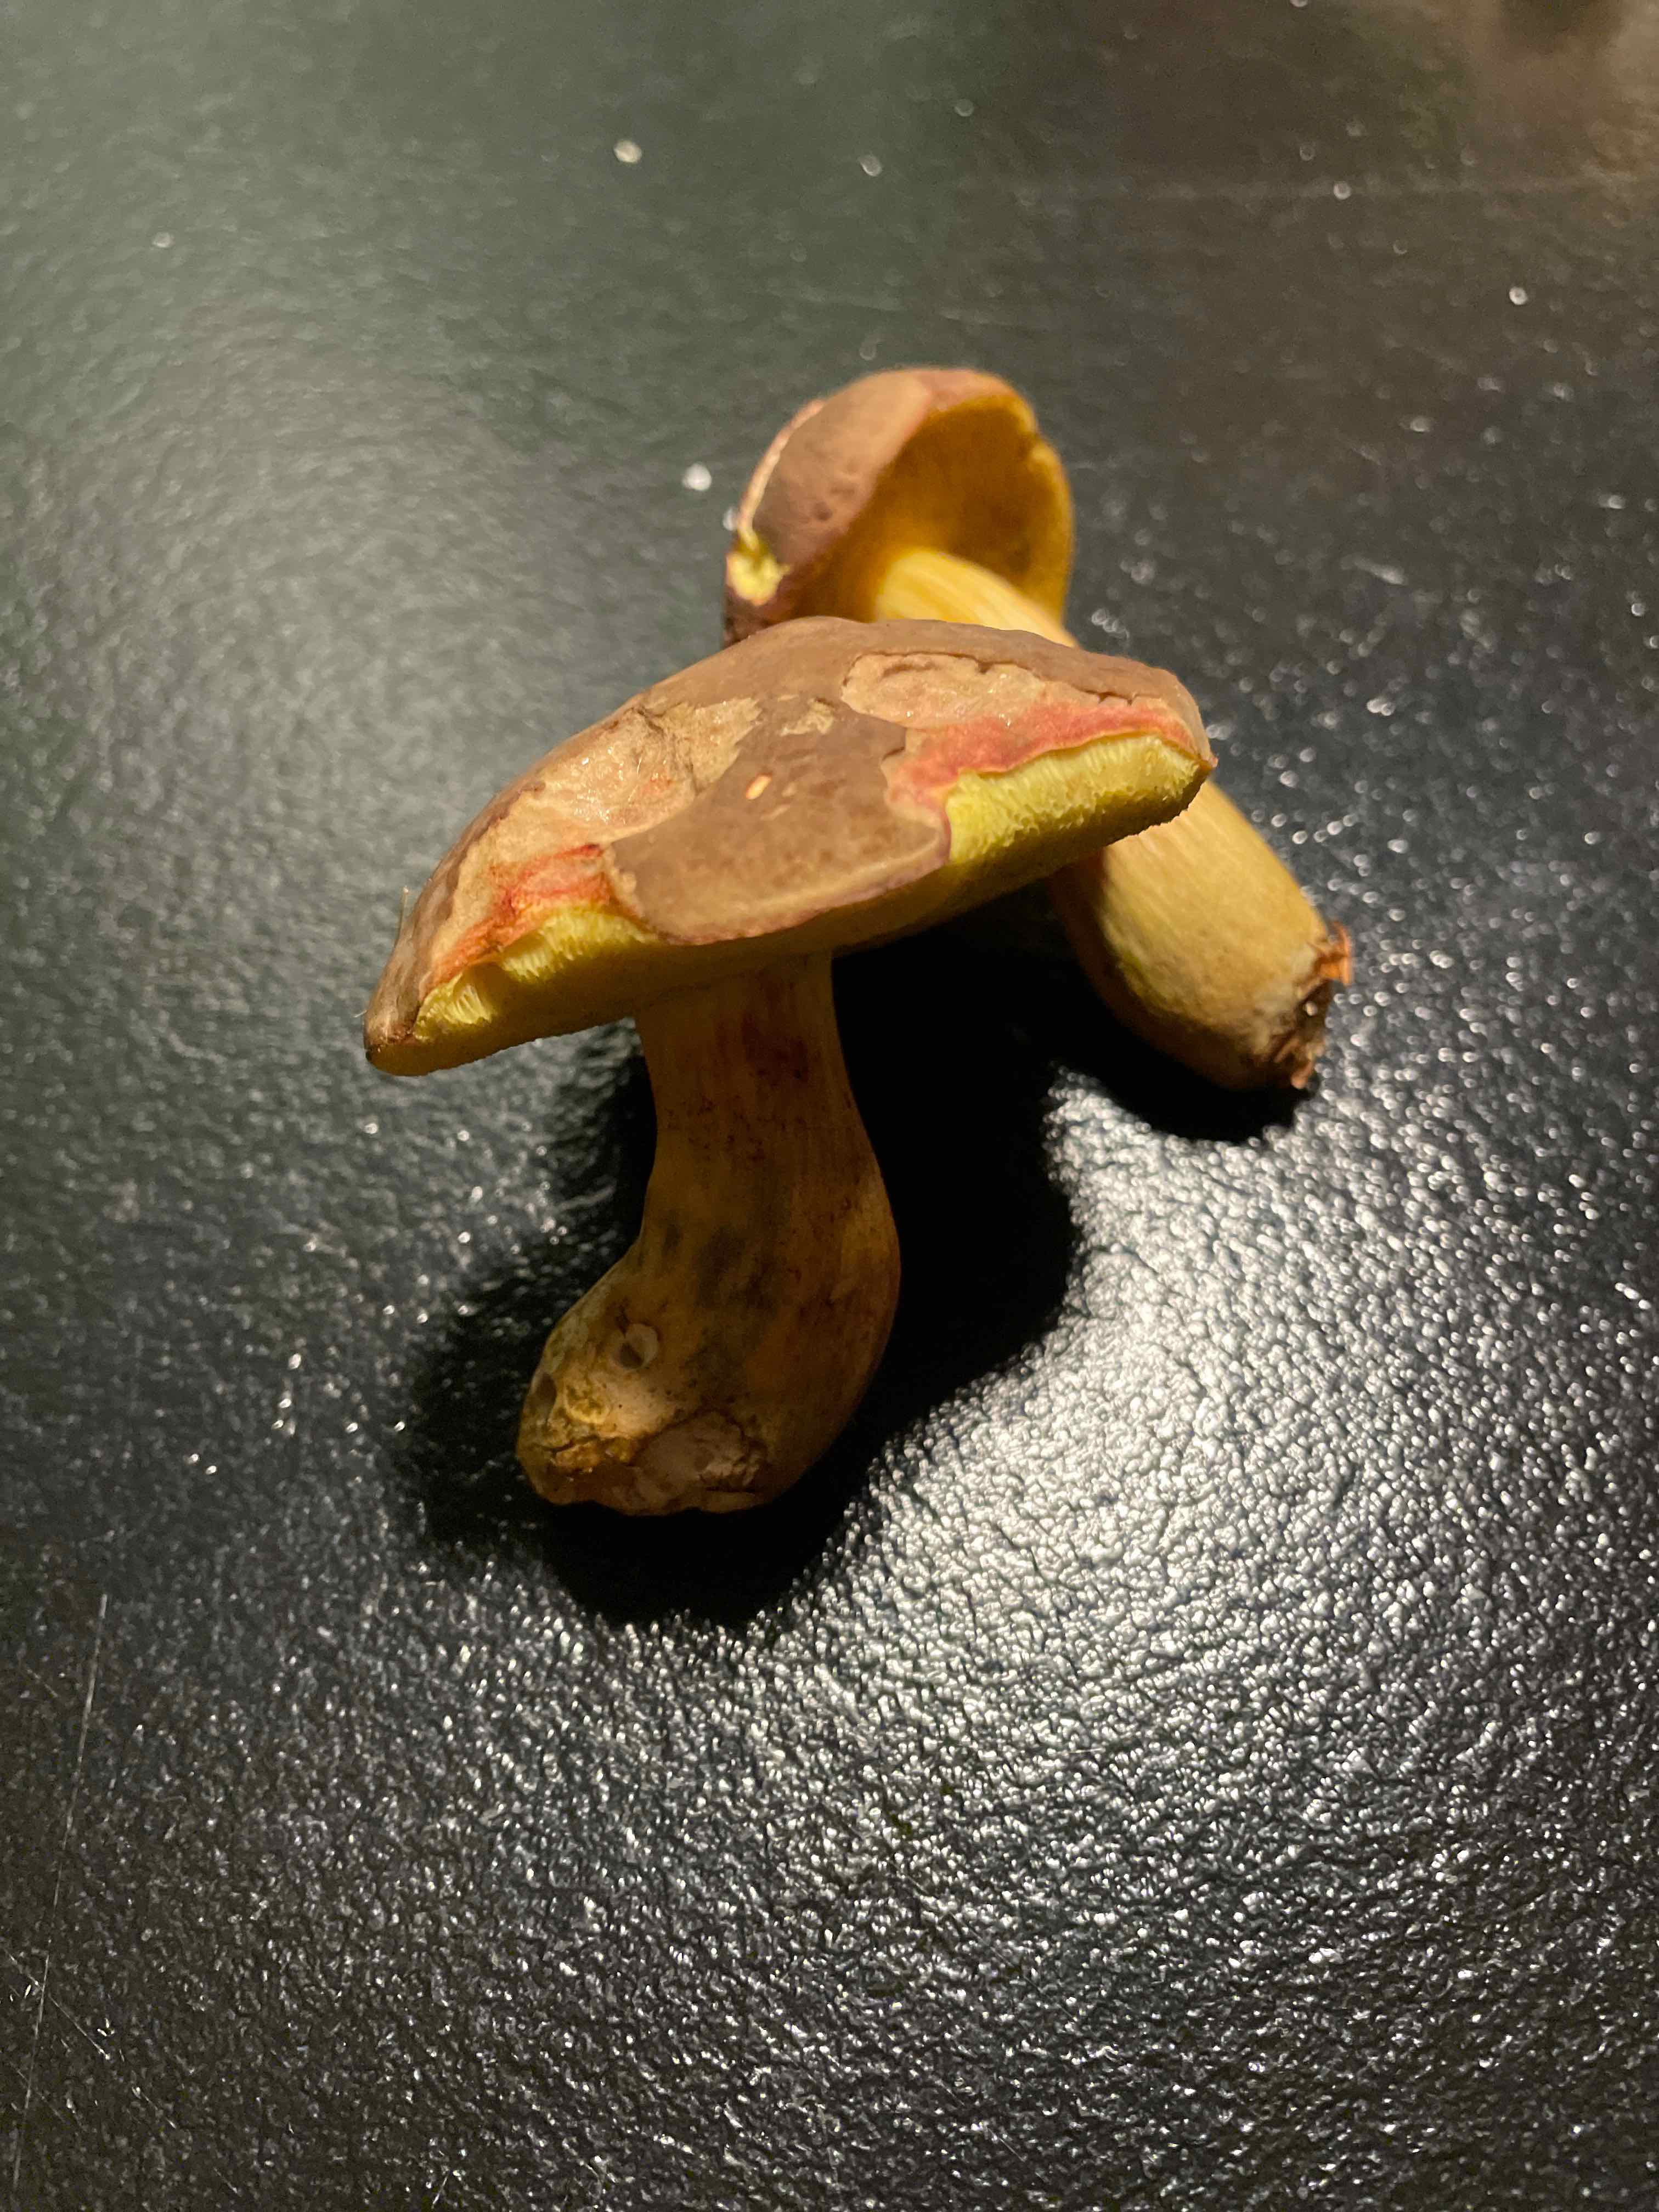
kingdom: Fungi
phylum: Basidiomycota
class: Agaricomycetes
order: Boletales
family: Boletaceae
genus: Xerocomellus
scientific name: Xerocomellus pruinatus
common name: dugget rørhat
